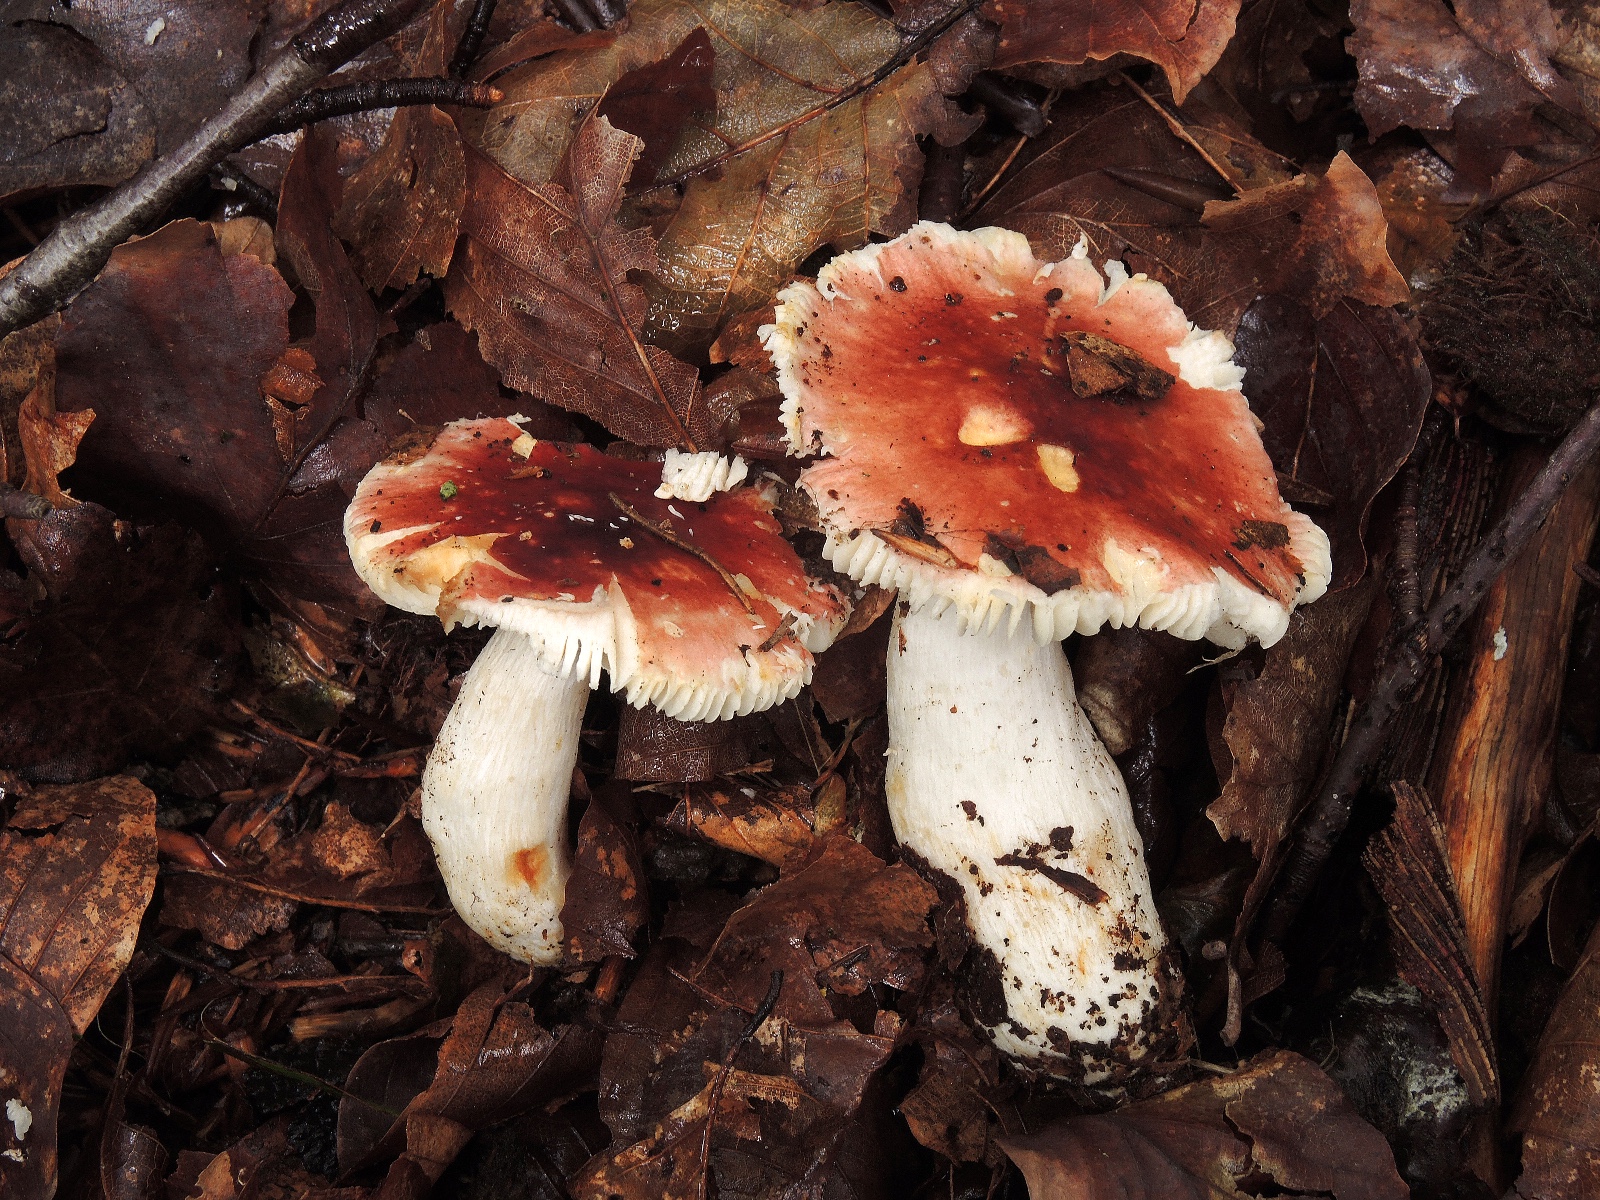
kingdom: Fungi
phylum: Basidiomycota
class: Agaricomycetes
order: Russulales
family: Russulaceae
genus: Russula
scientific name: Russula puellula
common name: gulnende skørhat
